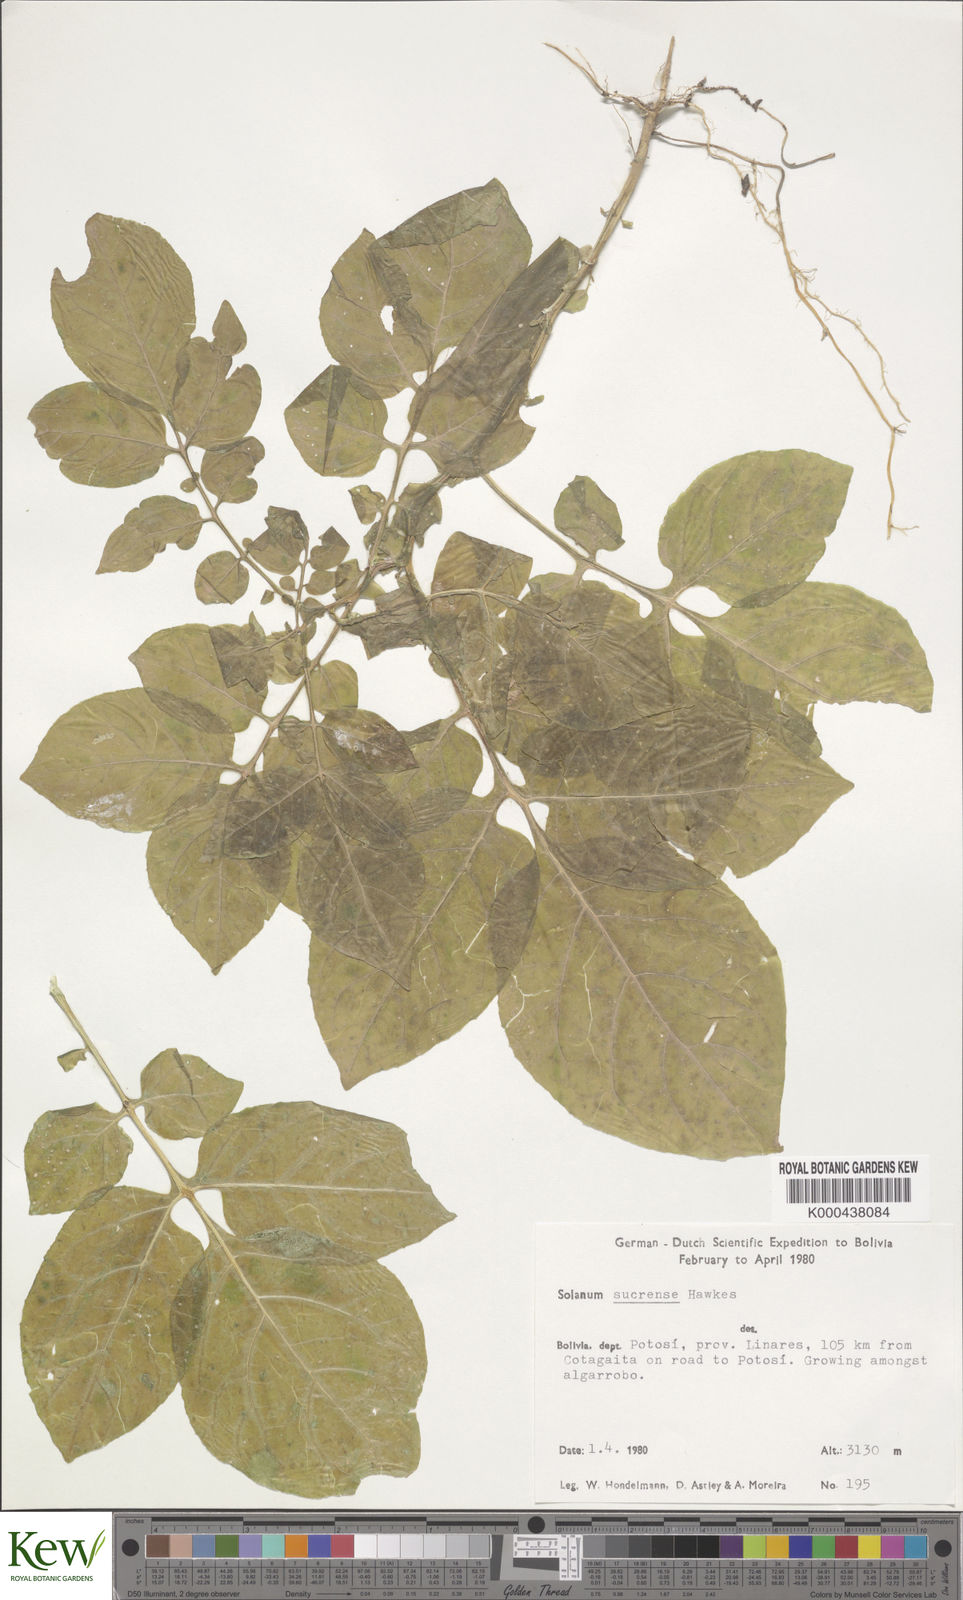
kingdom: Plantae
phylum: Tracheophyta
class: Magnoliopsida
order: Solanales
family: Solanaceae
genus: Solanum
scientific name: Solanum brevicaule
